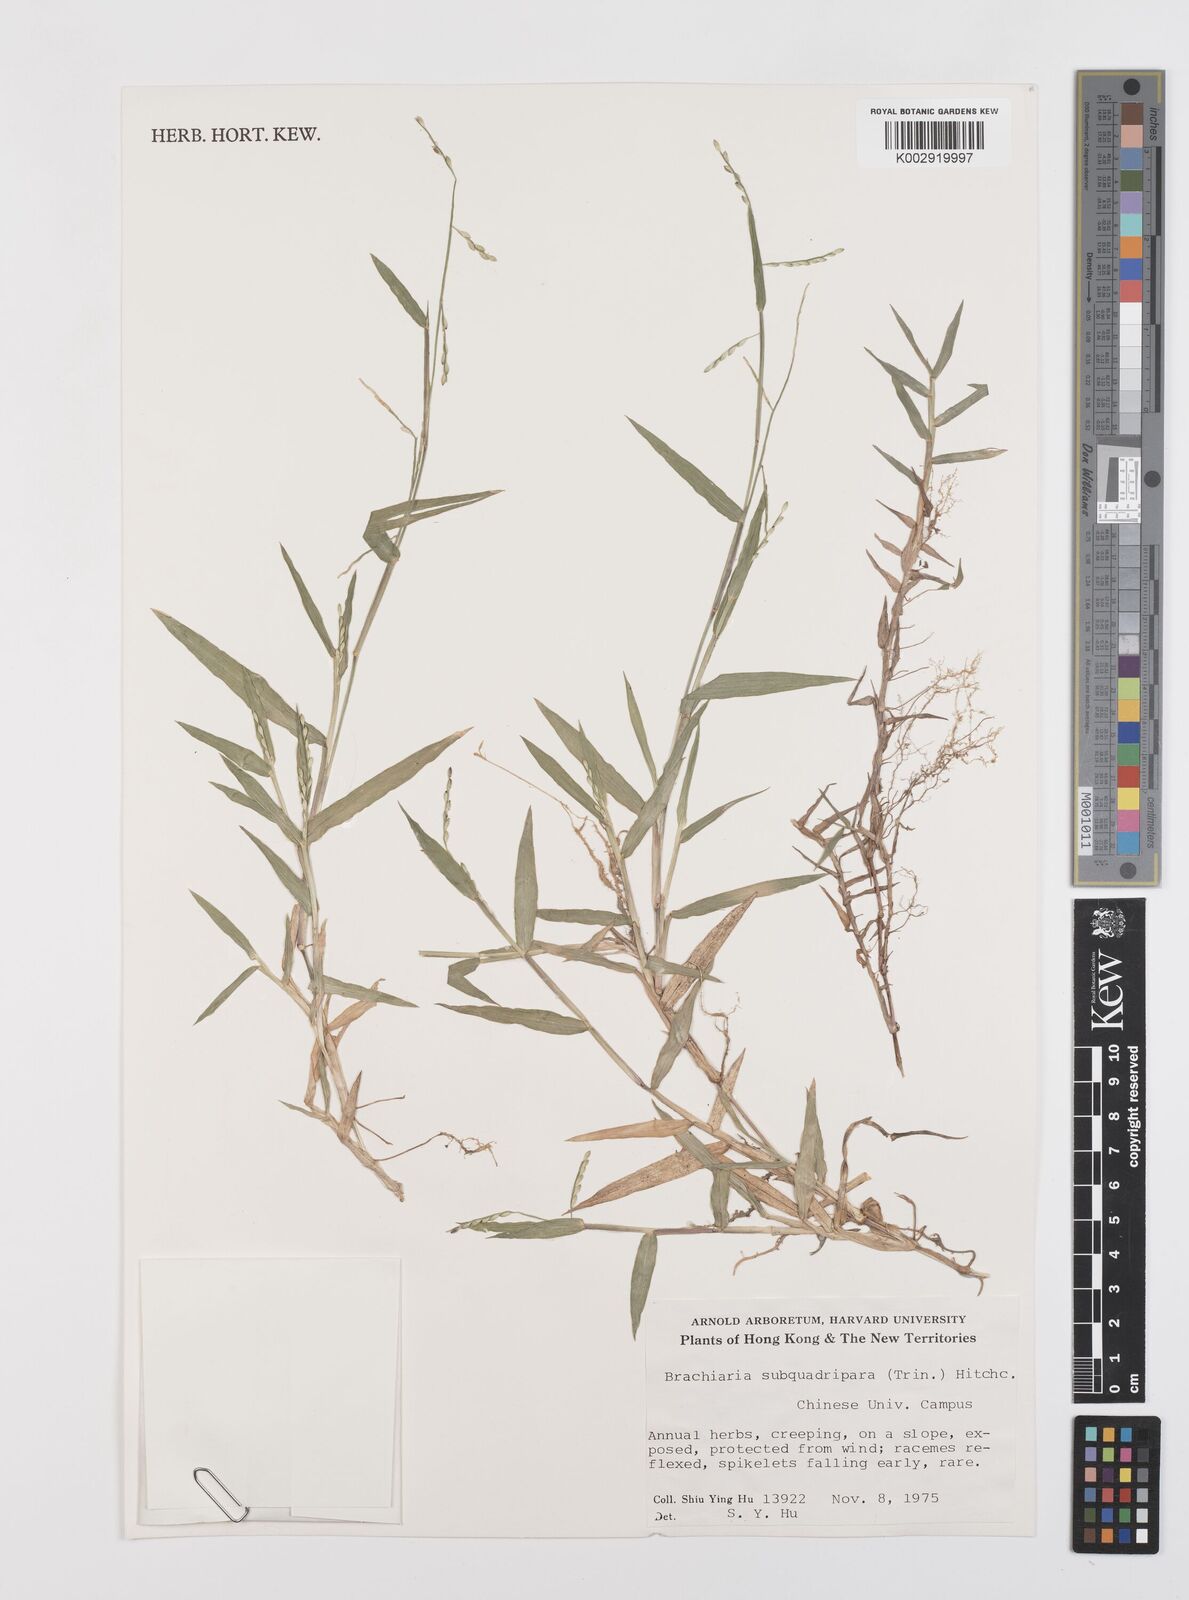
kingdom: Plantae
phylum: Tracheophyta
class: Liliopsida
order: Poales
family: Poaceae
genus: Urochloa
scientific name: Urochloa subquadripara
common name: Armgrass millet
